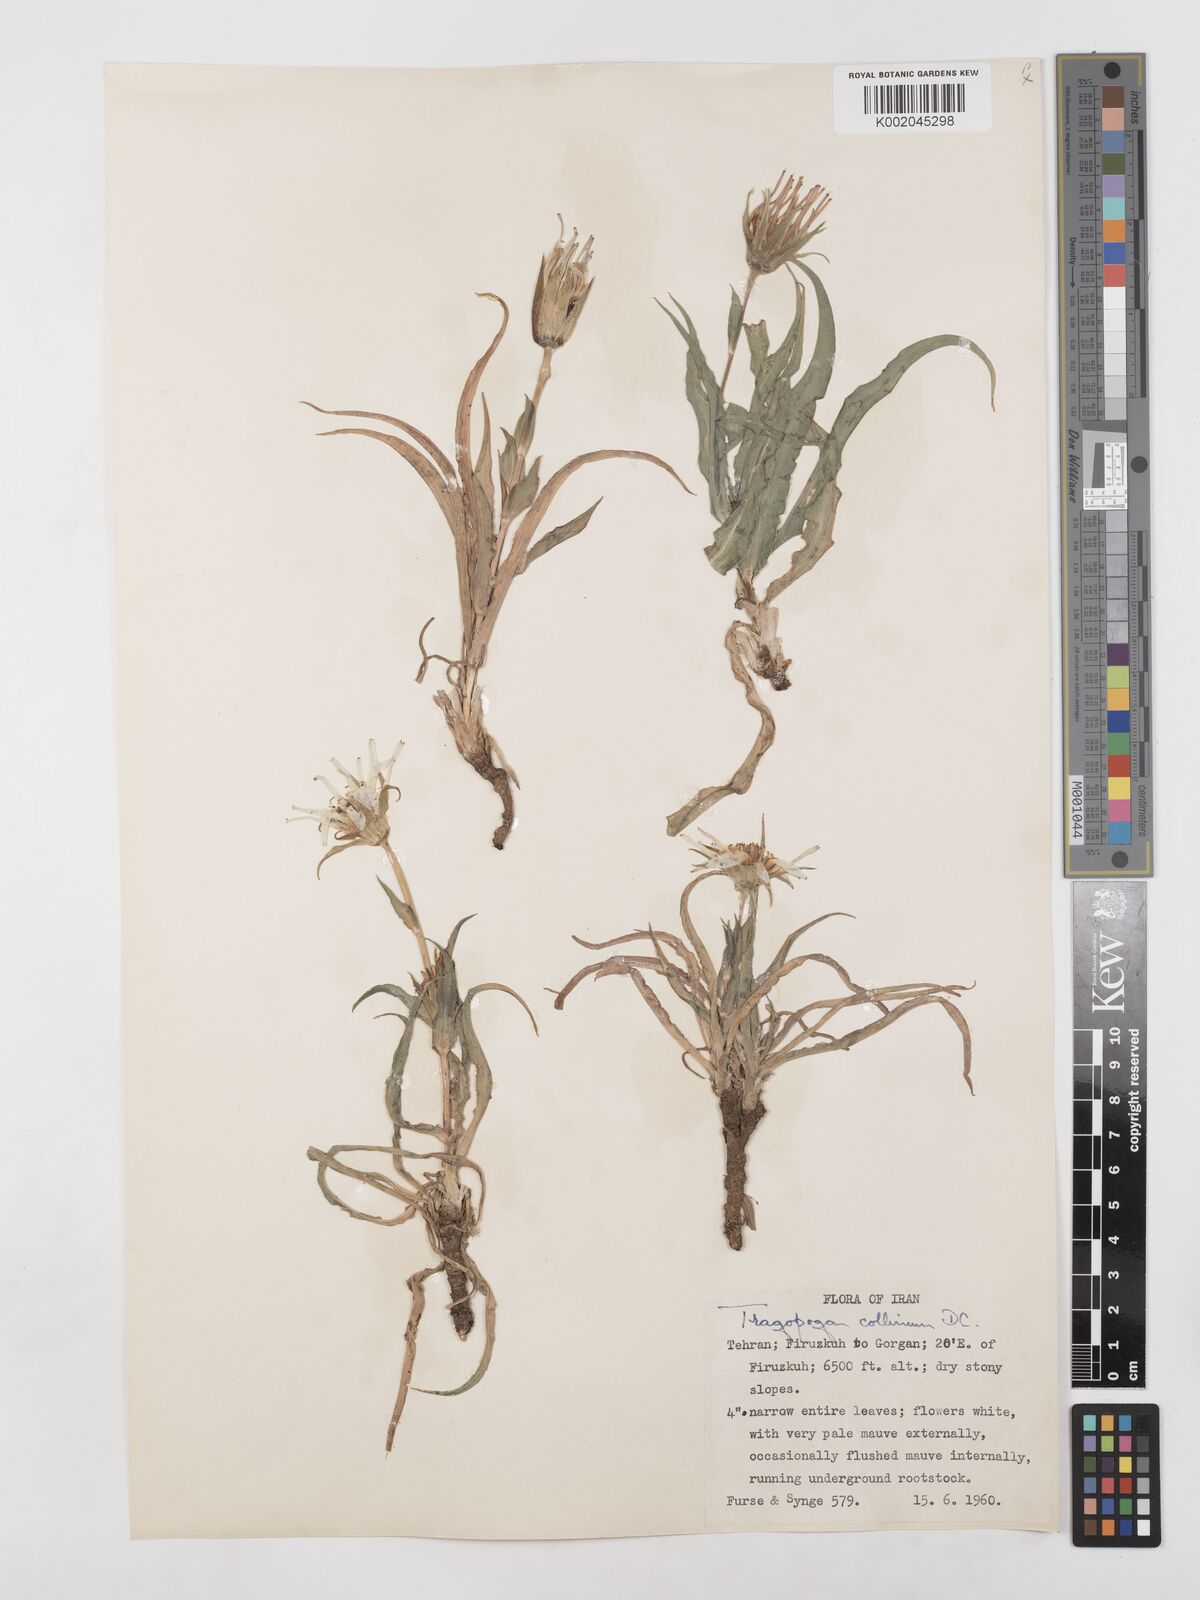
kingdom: Plantae
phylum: Tracheophyta
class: Magnoliopsida
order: Asterales
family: Asteraceae
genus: Tragopogon
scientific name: Tragopogon collinus
